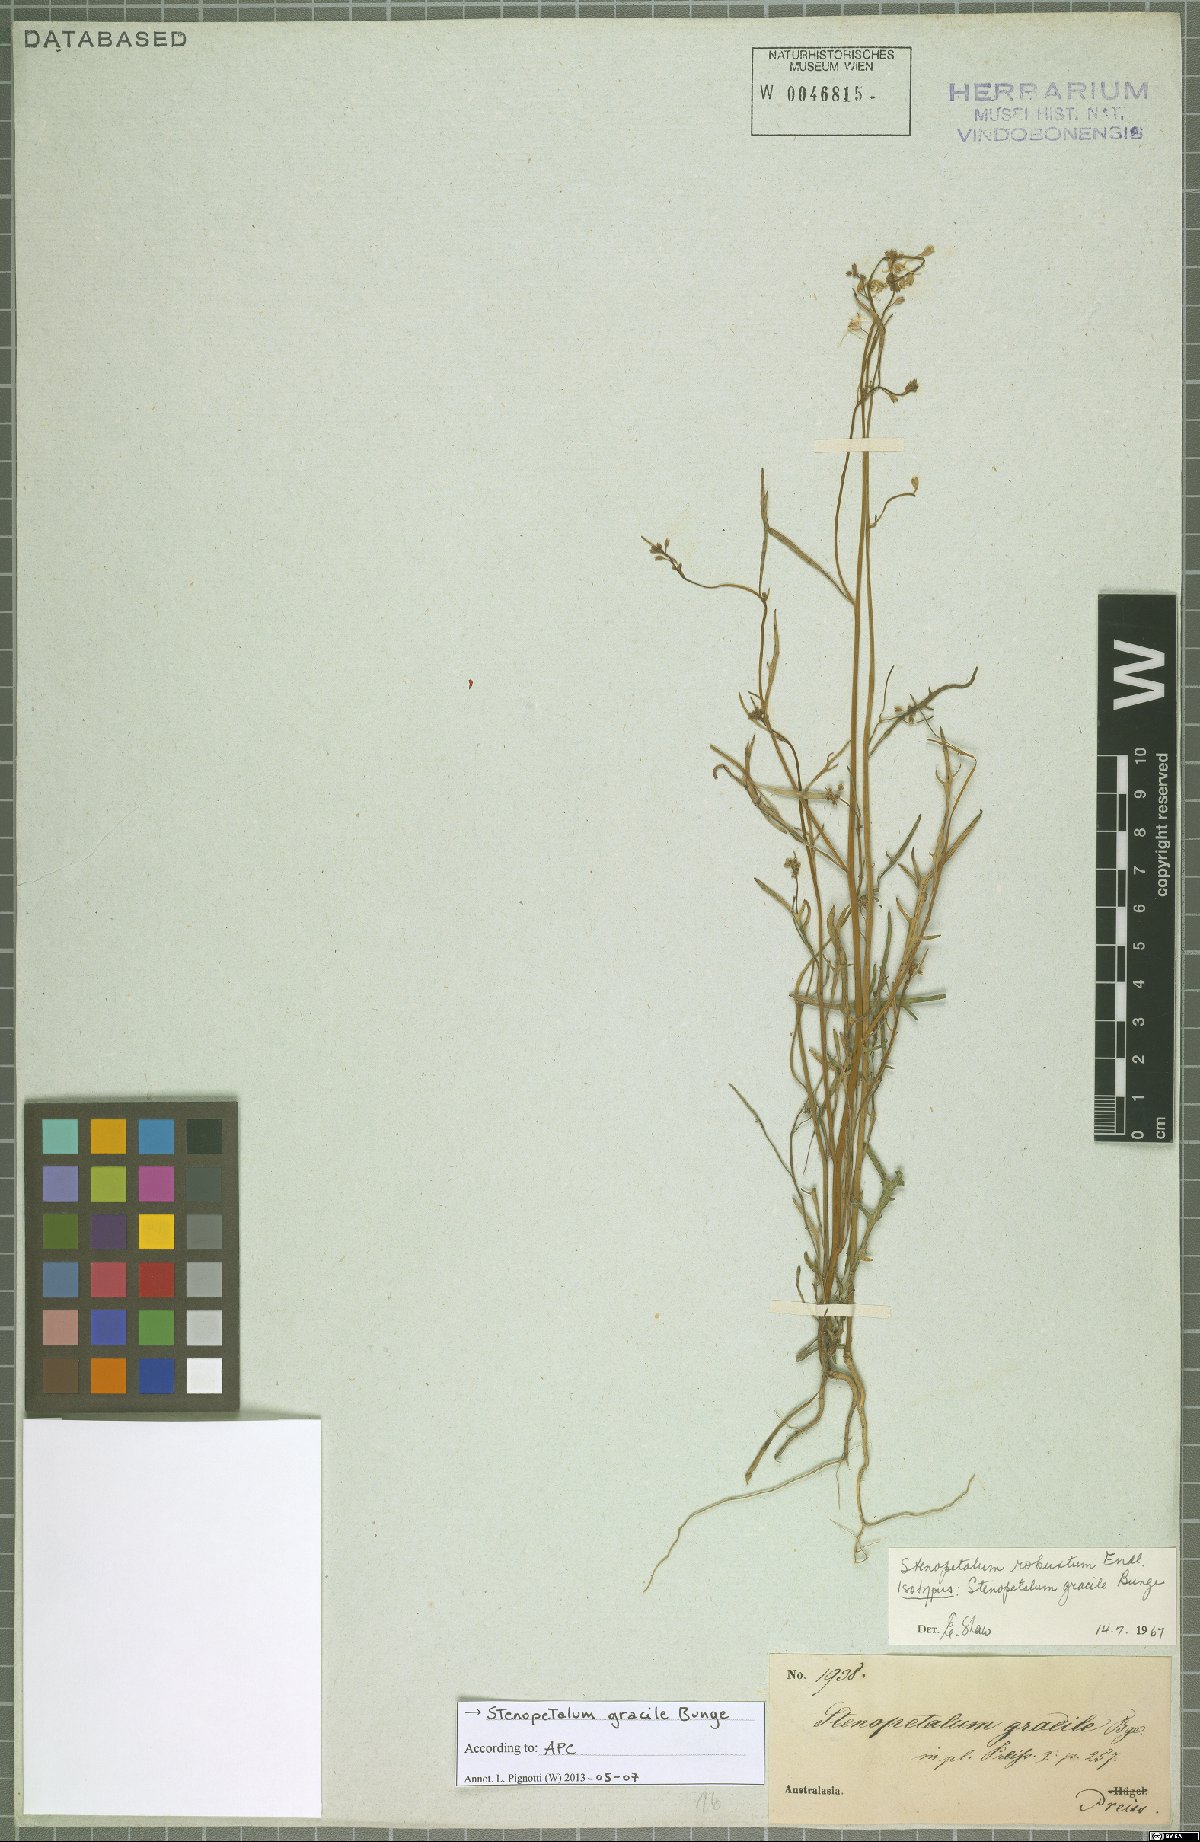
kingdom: Plantae
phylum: Tracheophyta
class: Magnoliopsida
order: Brassicales
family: Brassicaceae
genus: Stenopetalum
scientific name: Stenopetalum robustum
